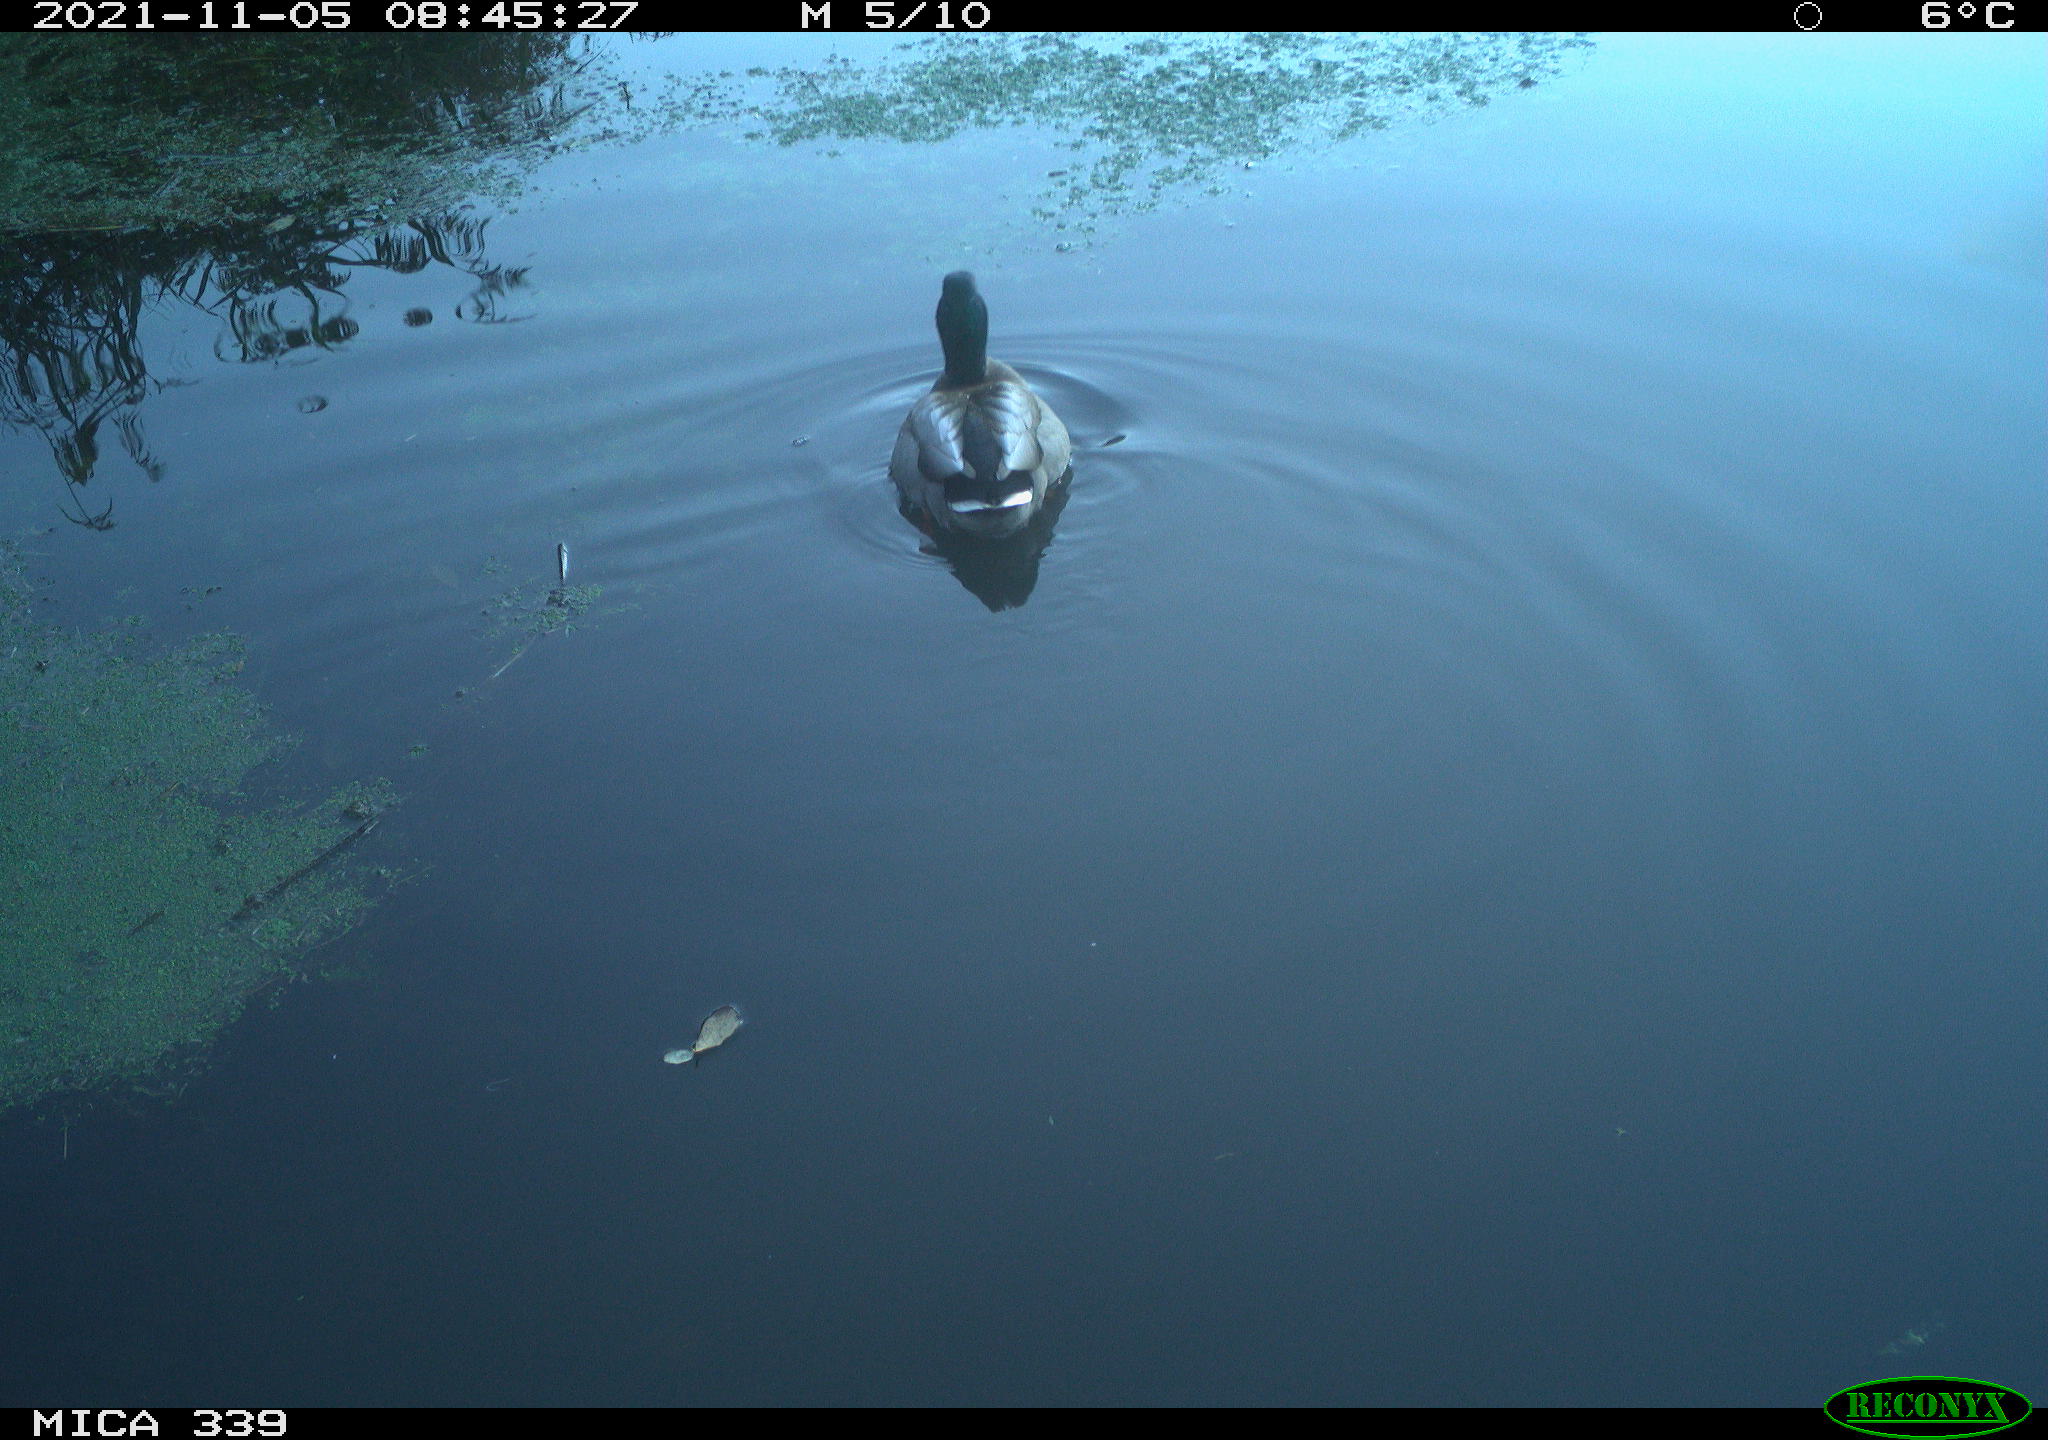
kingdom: Animalia
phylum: Chordata
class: Aves
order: Anseriformes
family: Anatidae
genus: Anas
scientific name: Anas platyrhynchos
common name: Mallard
